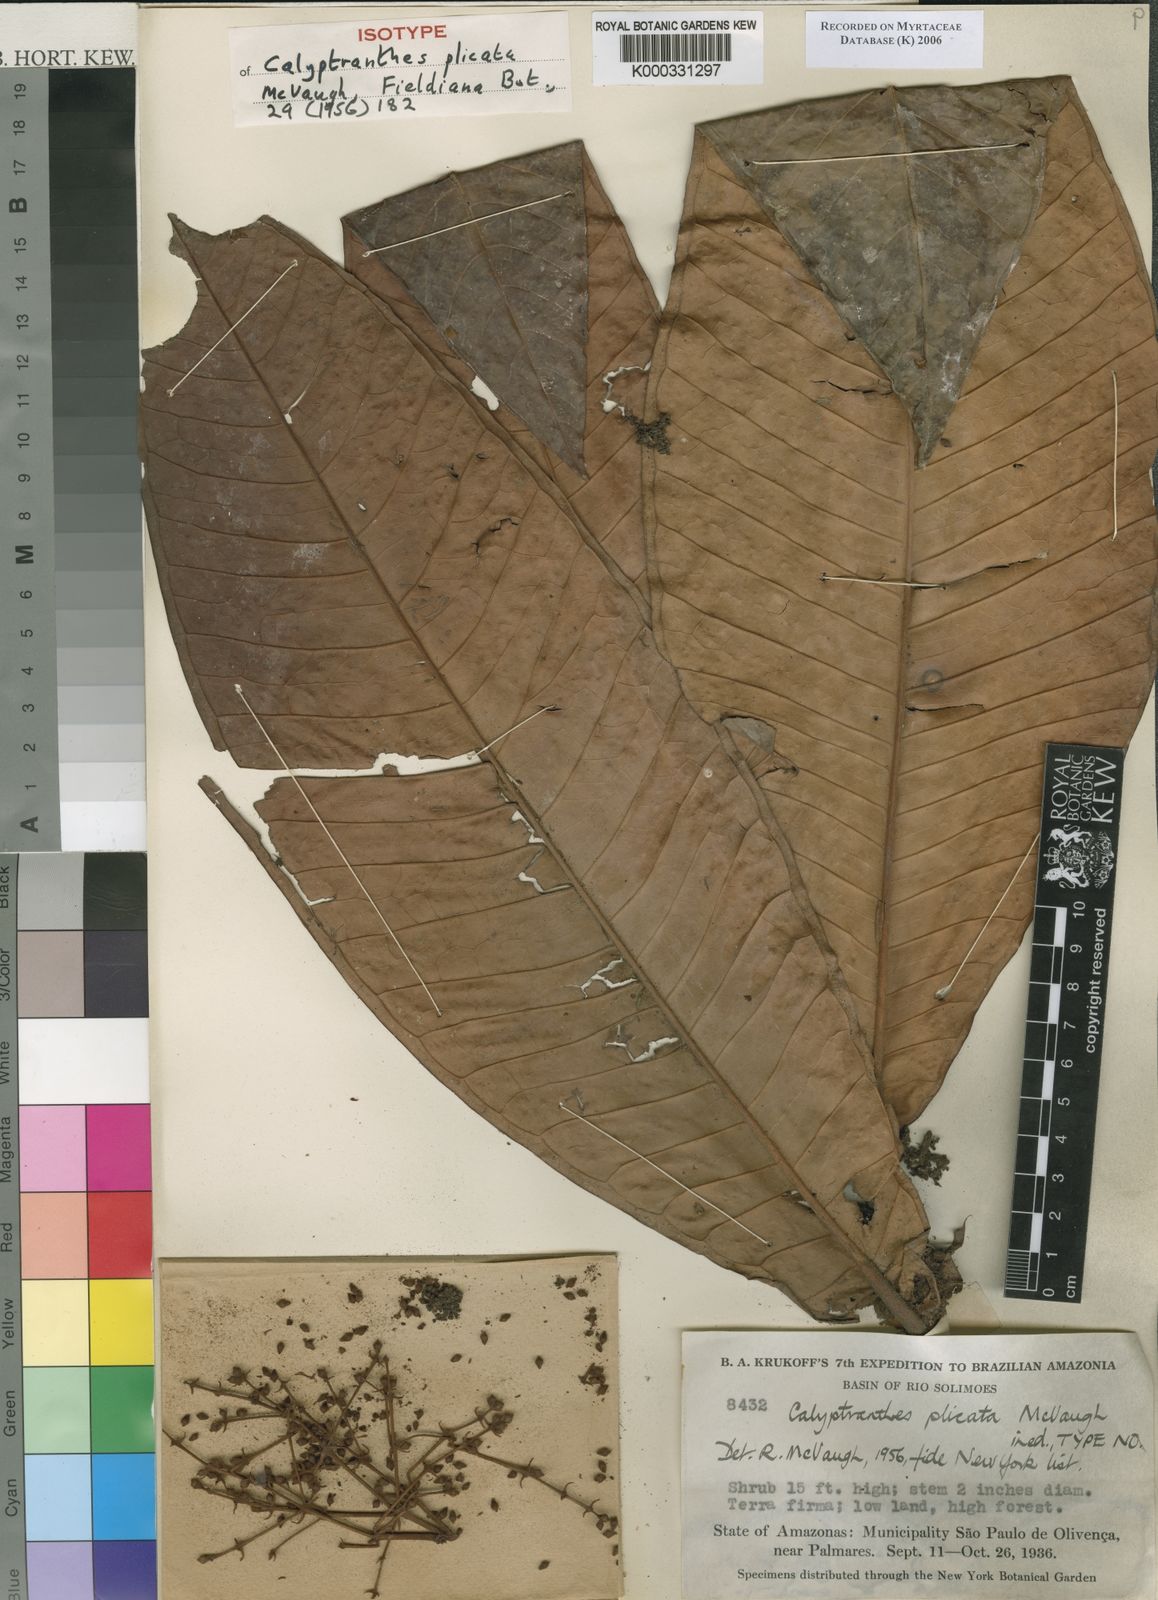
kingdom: Plantae
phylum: Tracheophyta
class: Magnoliopsida
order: Myrtales
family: Myrtaceae
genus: Myrcia
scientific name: Myrcia plicata
